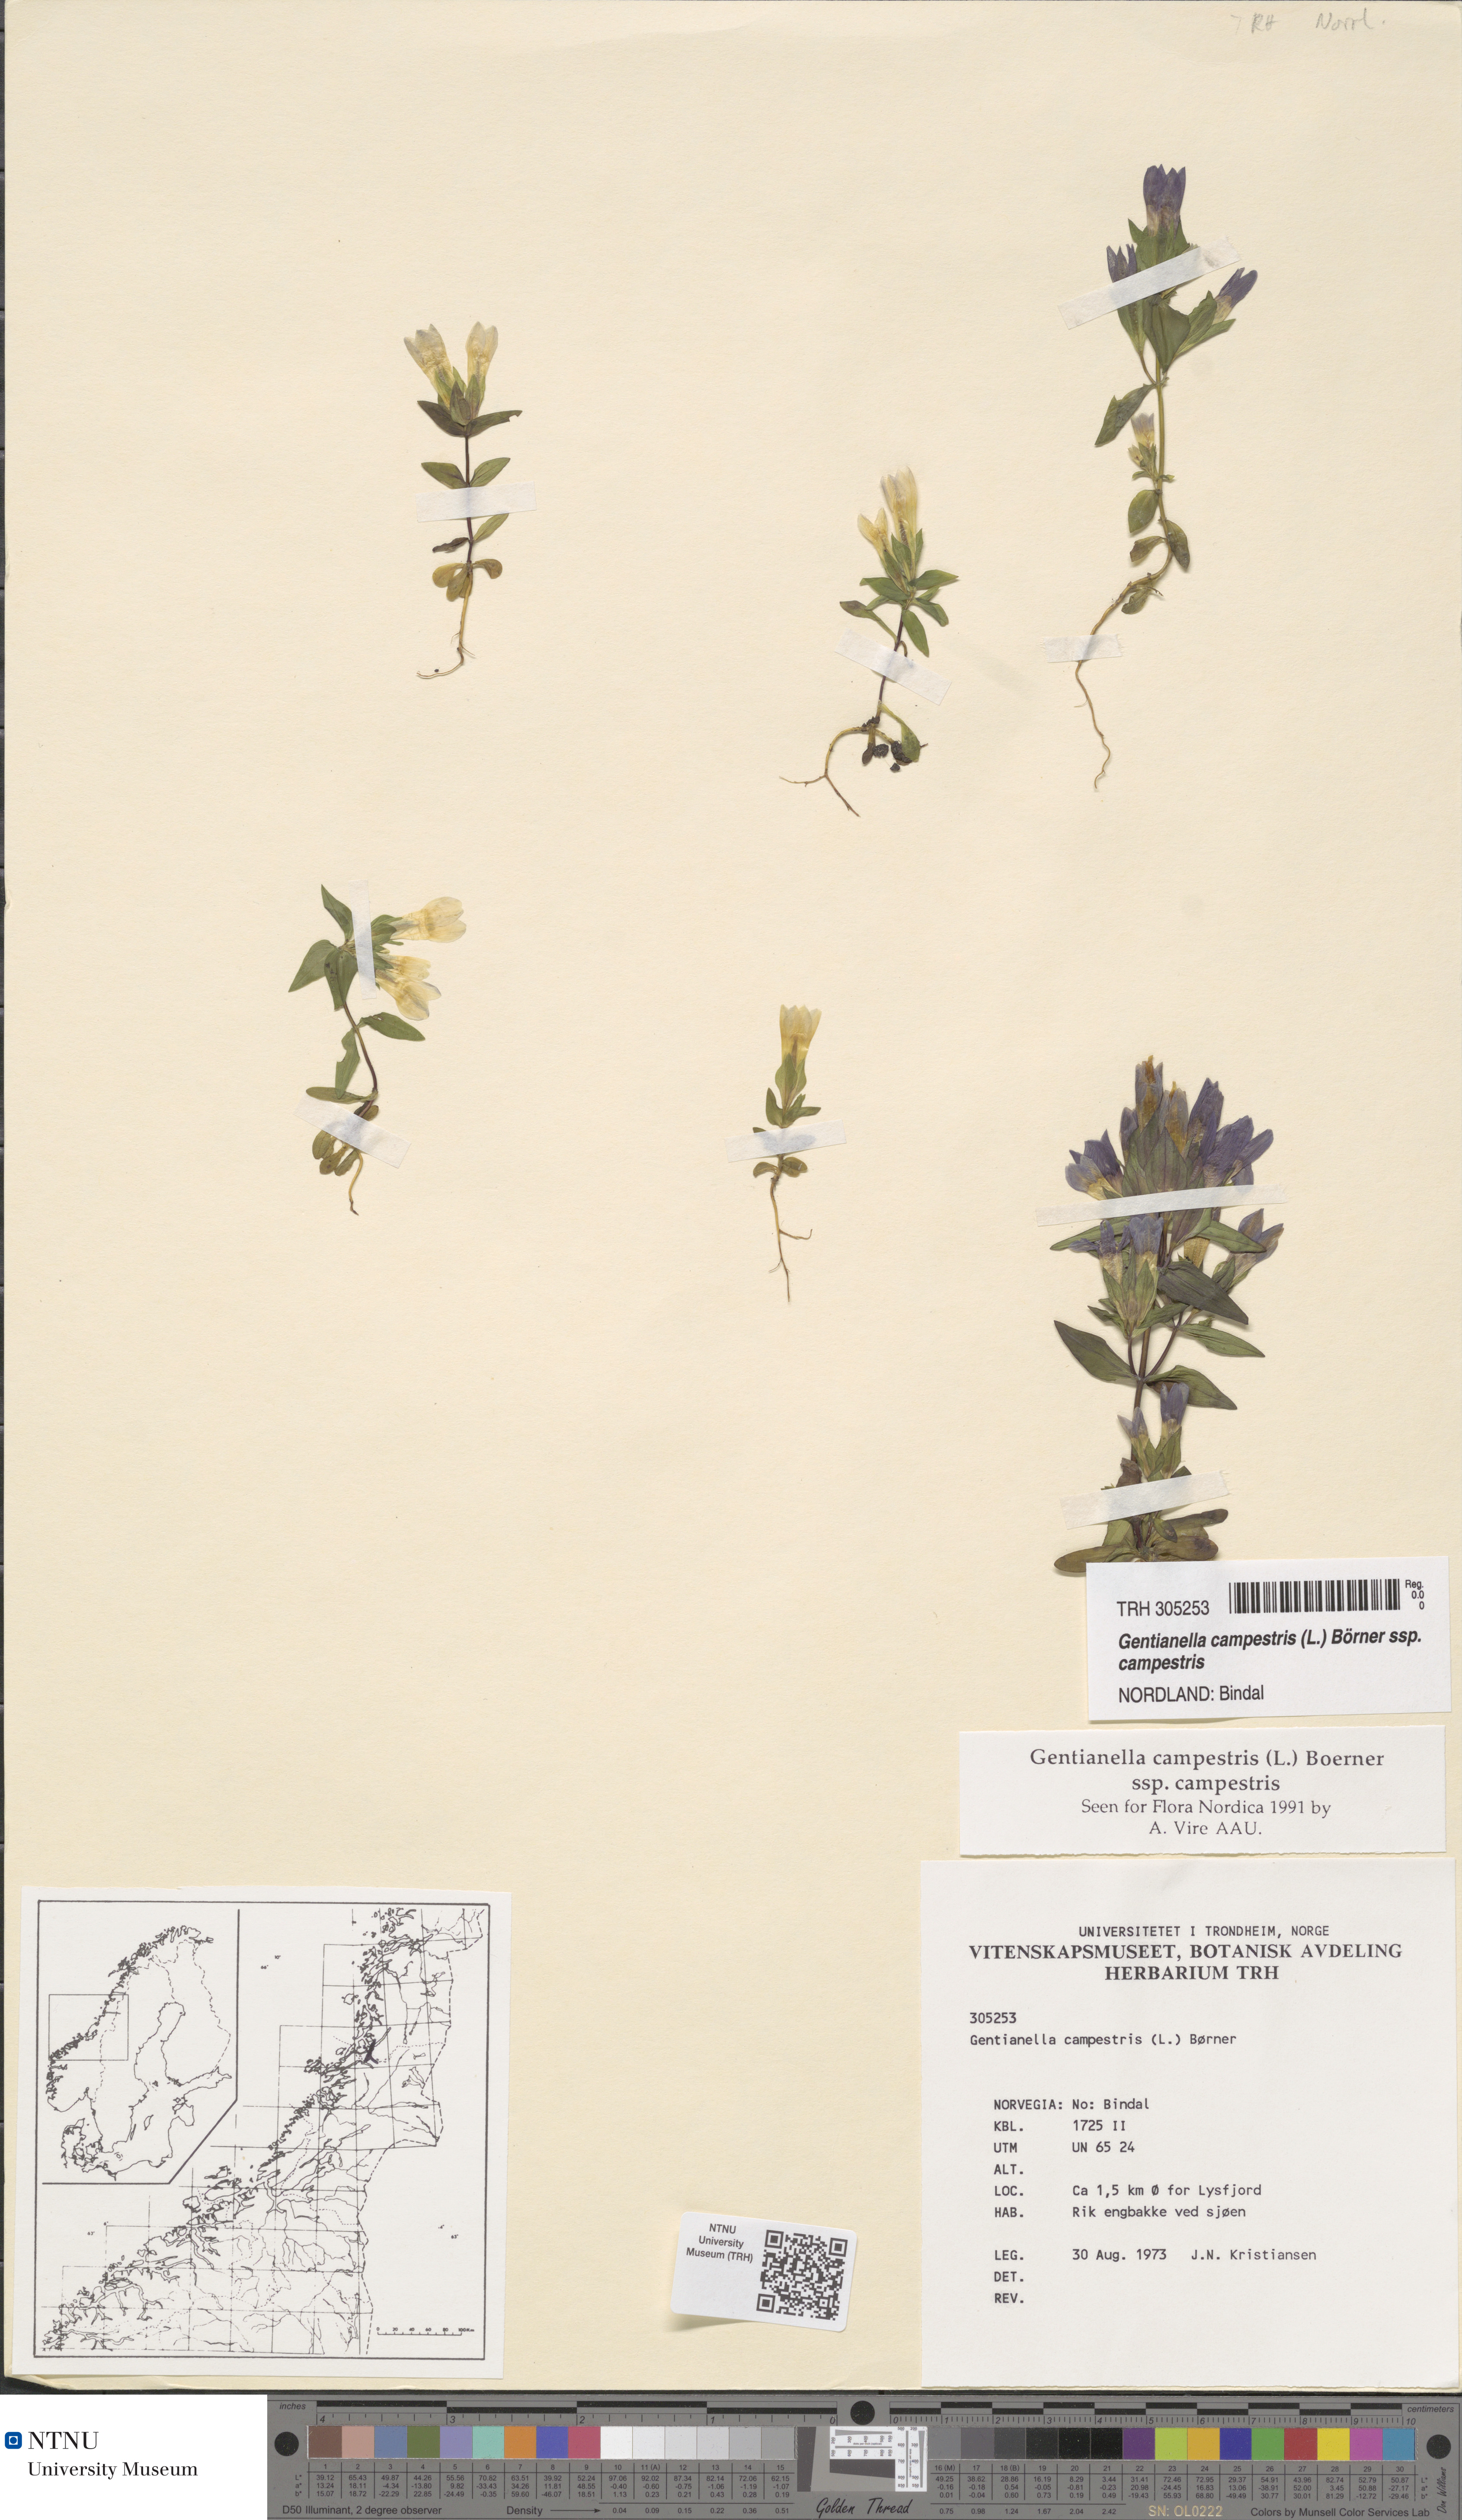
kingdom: Plantae
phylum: Tracheophyta
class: Magnoliopsida
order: Gentianales
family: Gentianaceae
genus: Gentianella
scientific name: Gentianella campestris
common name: Field gentian
